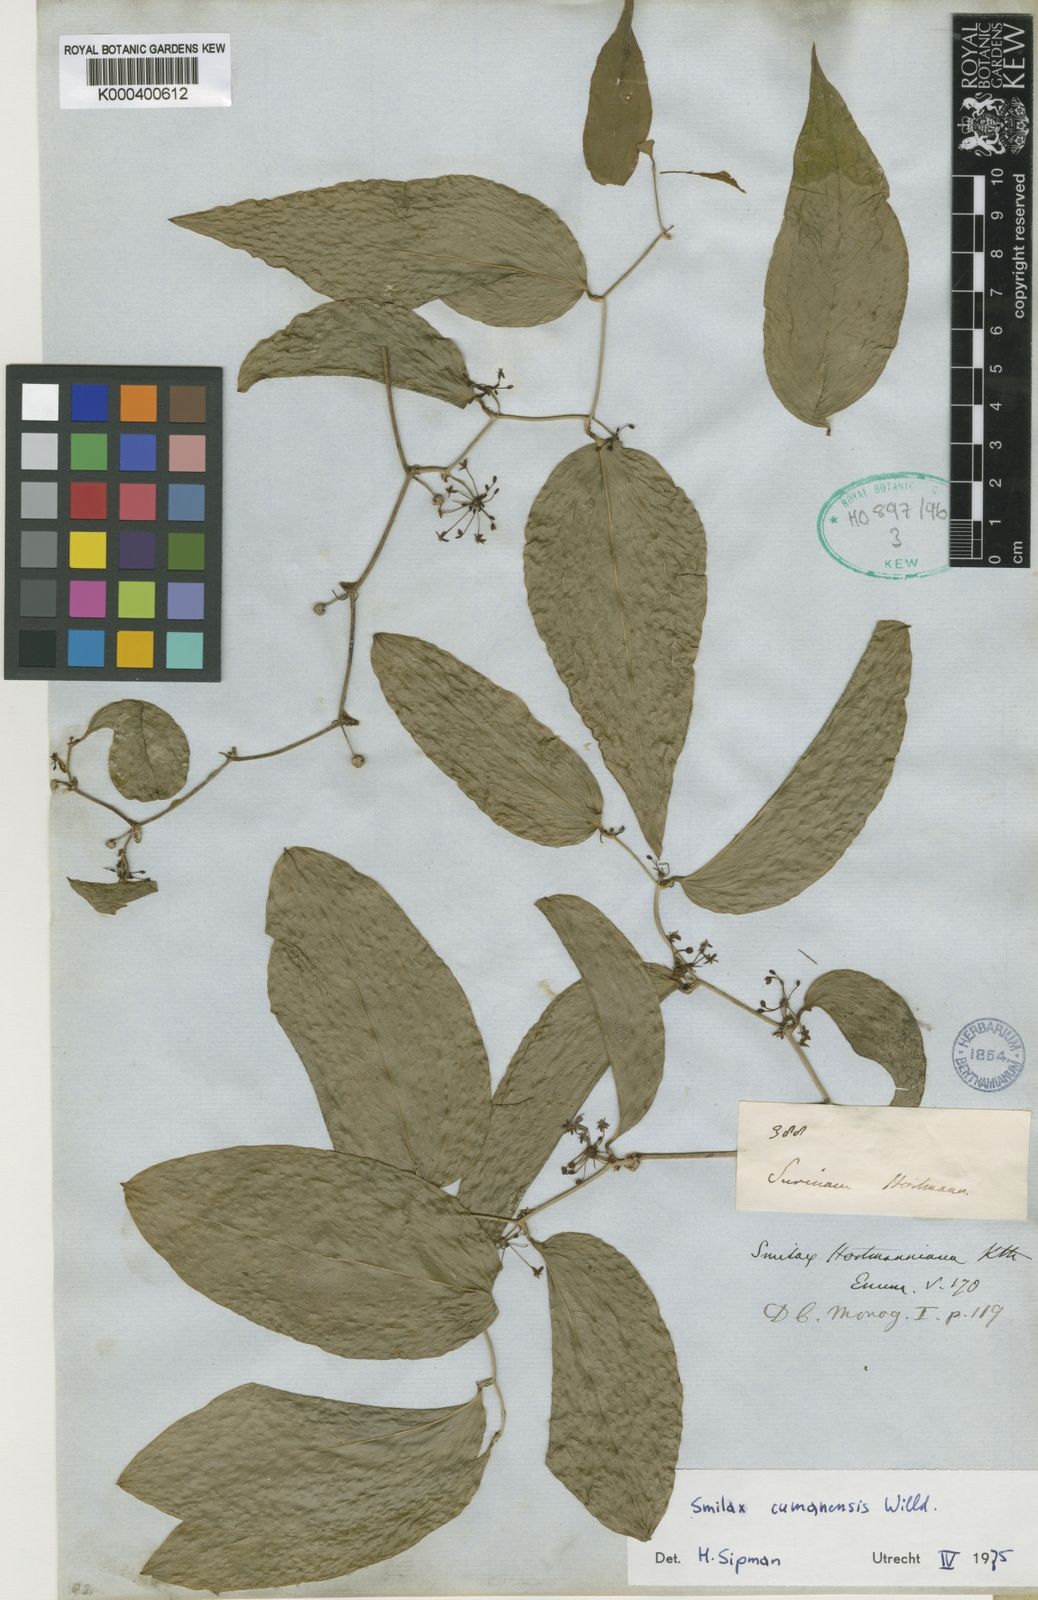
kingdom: Plantae
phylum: Tracheophyta
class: Liliopsida
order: Liliales
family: Smilacaceae
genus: Smilax
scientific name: Smilax oblongata
